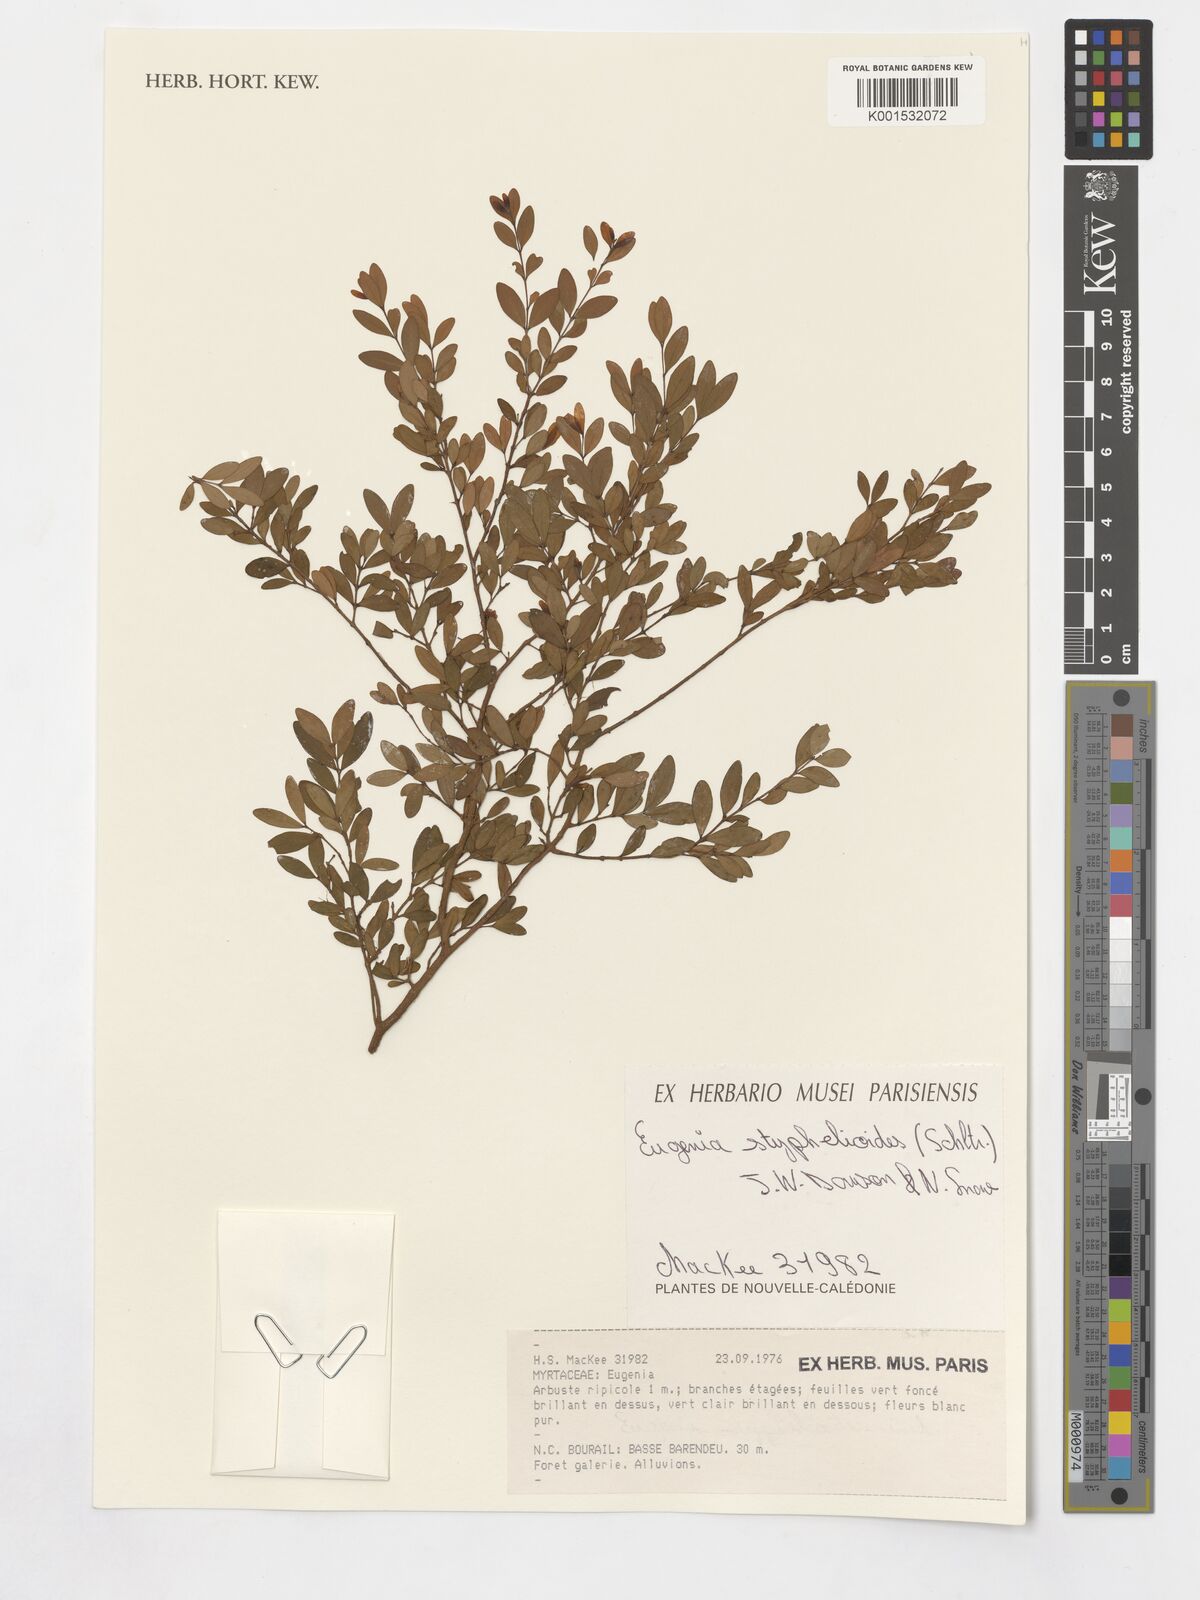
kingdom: Plantae
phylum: Tracheophyta
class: Magnoliopsida
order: Myrtales
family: Myrtaceae
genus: Eugenia
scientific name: Eugenia styphelioides
